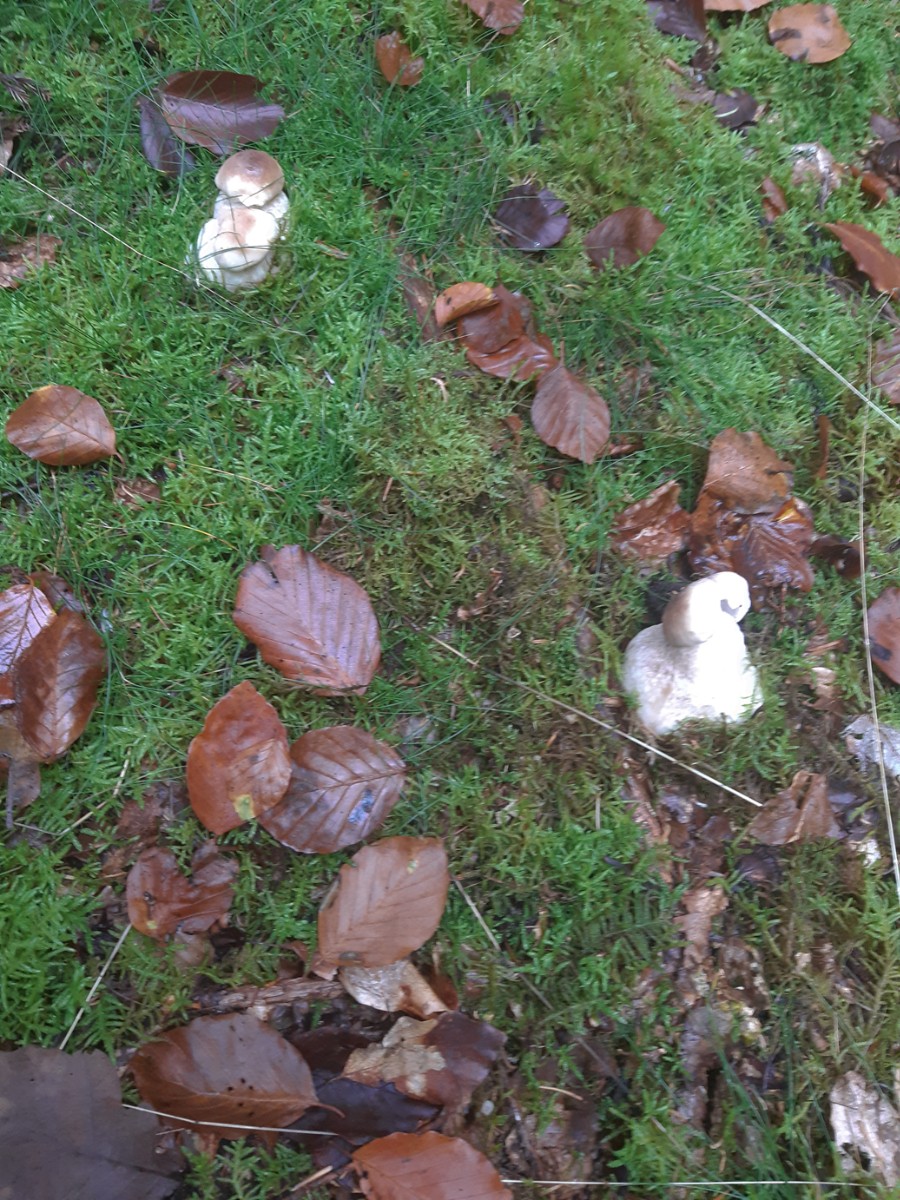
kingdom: Fungi
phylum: Basidiomycota
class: Agaricomycetes
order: Boletales
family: Boletaceae
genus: Boletus
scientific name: Boletus edulis
